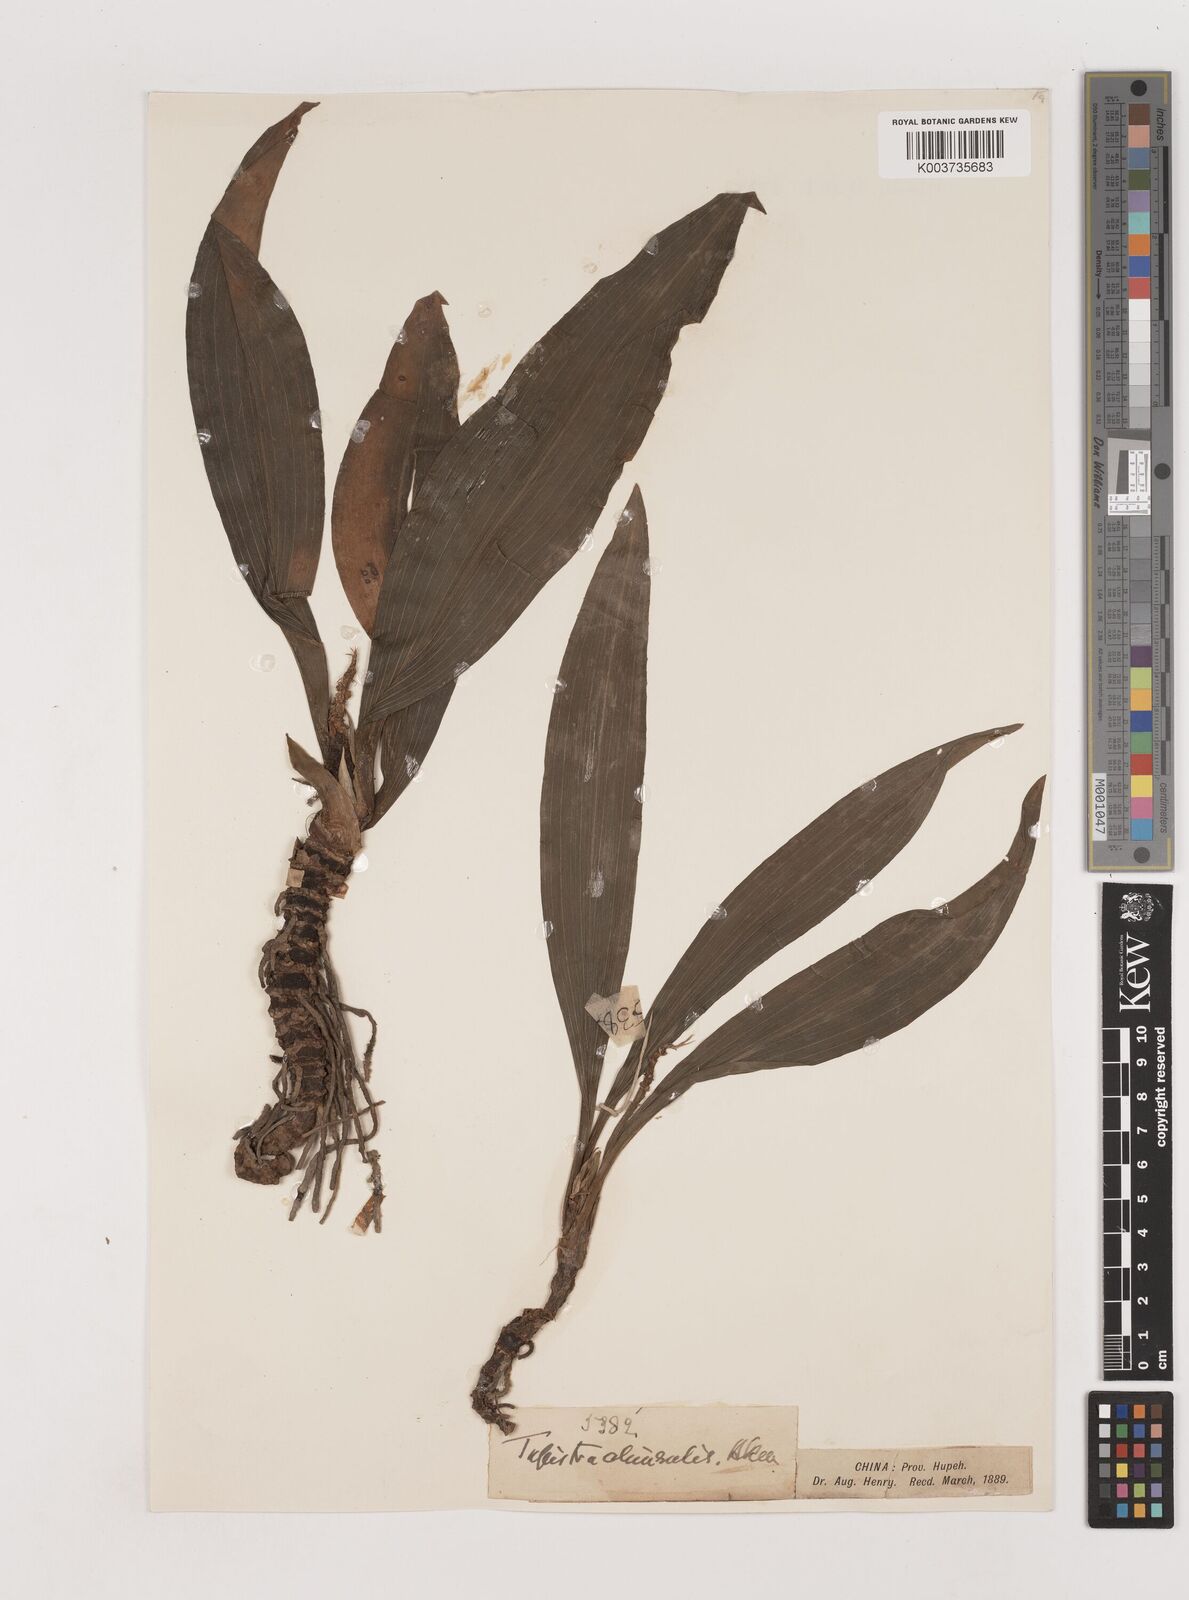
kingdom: Plantae
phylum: Tracheophyta
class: Liliopsida
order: Asparagales
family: Asparagaceae
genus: Rohdea
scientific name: Rohdea delavayi
